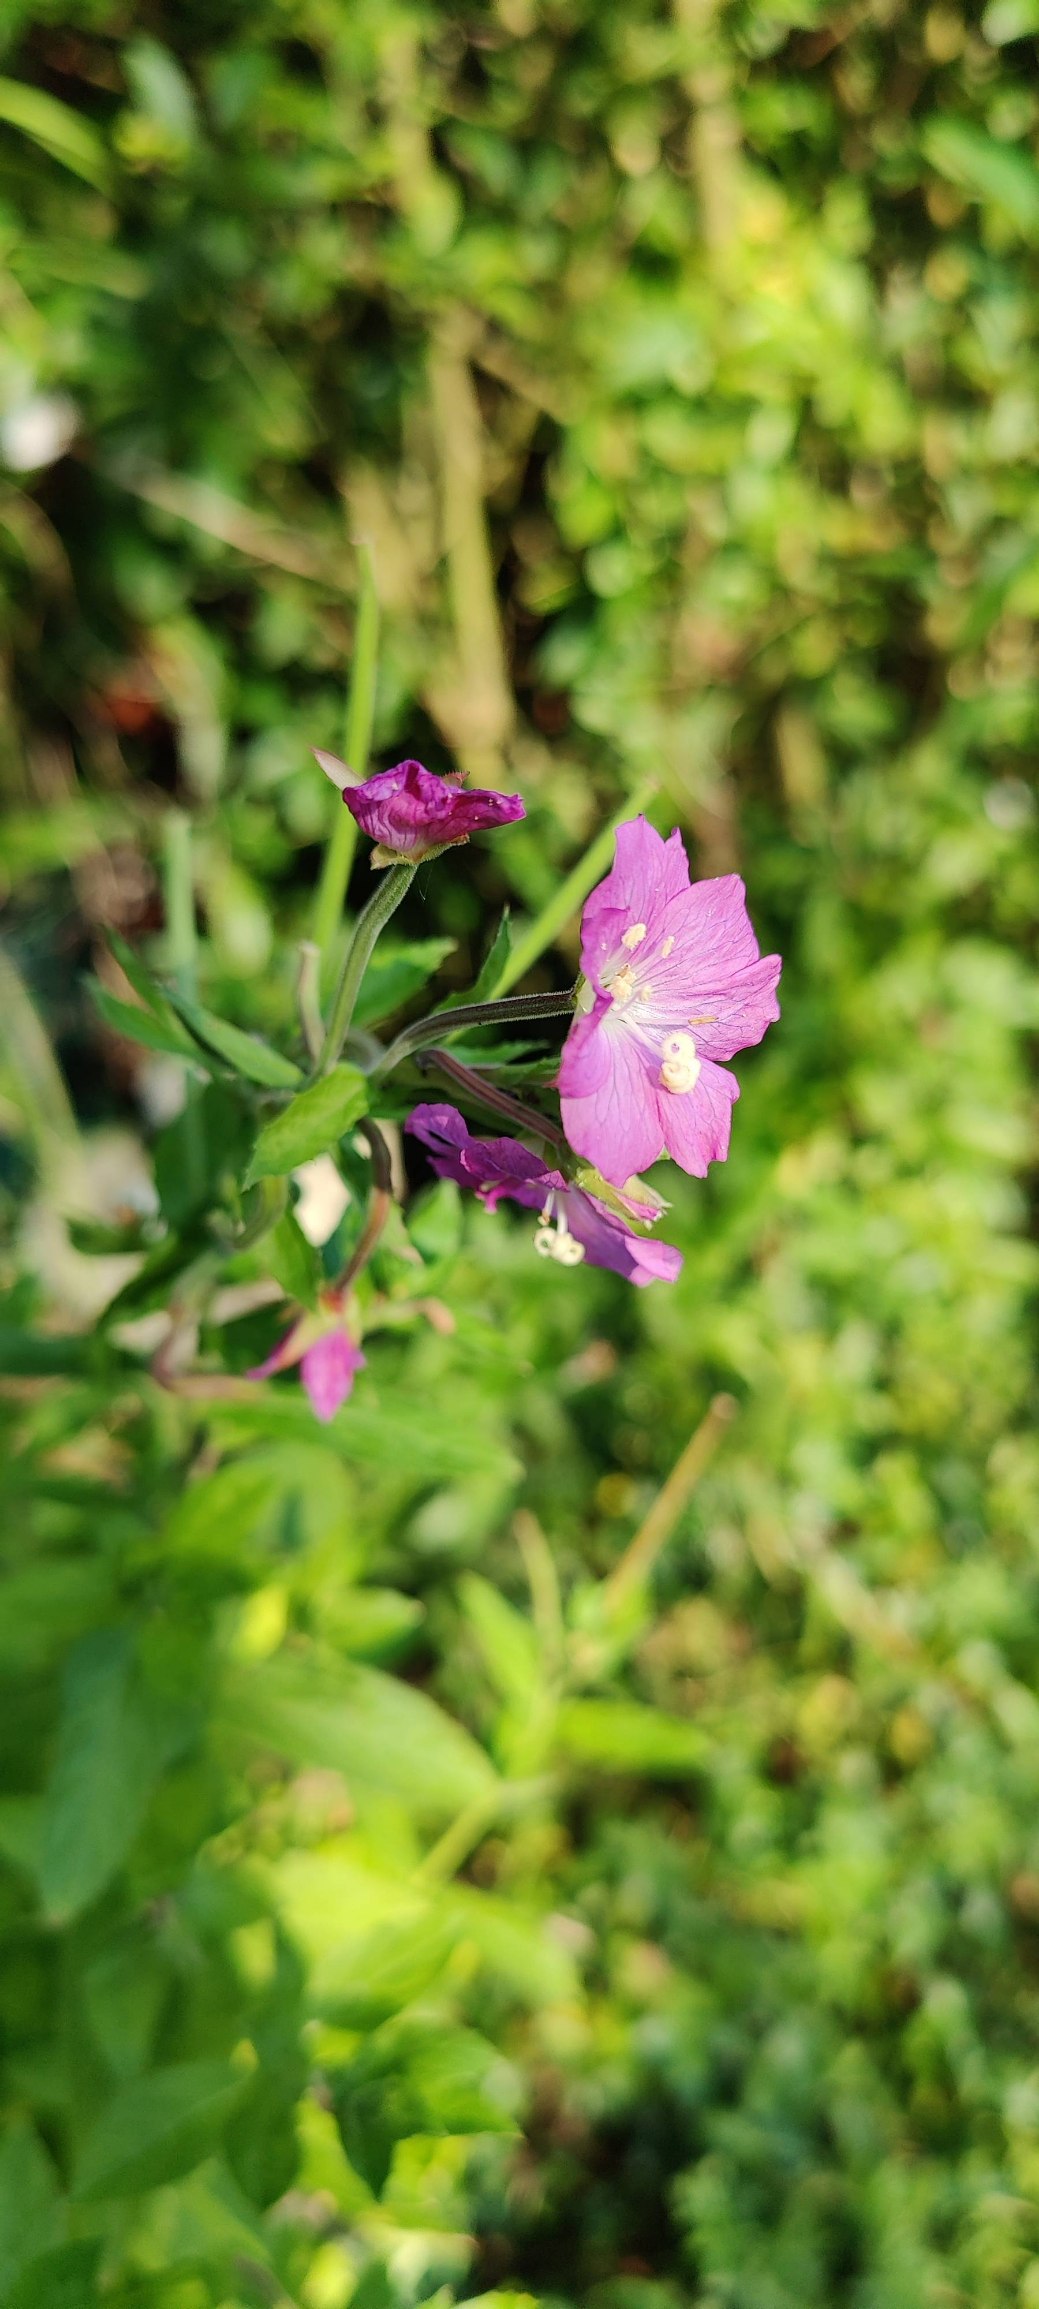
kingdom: Plantae
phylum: Tracheophyta
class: Magnoliopsida
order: Myrtales
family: Onagraceae
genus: Epilobium
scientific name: Epilobium hirsutum
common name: Lådden dueurt
